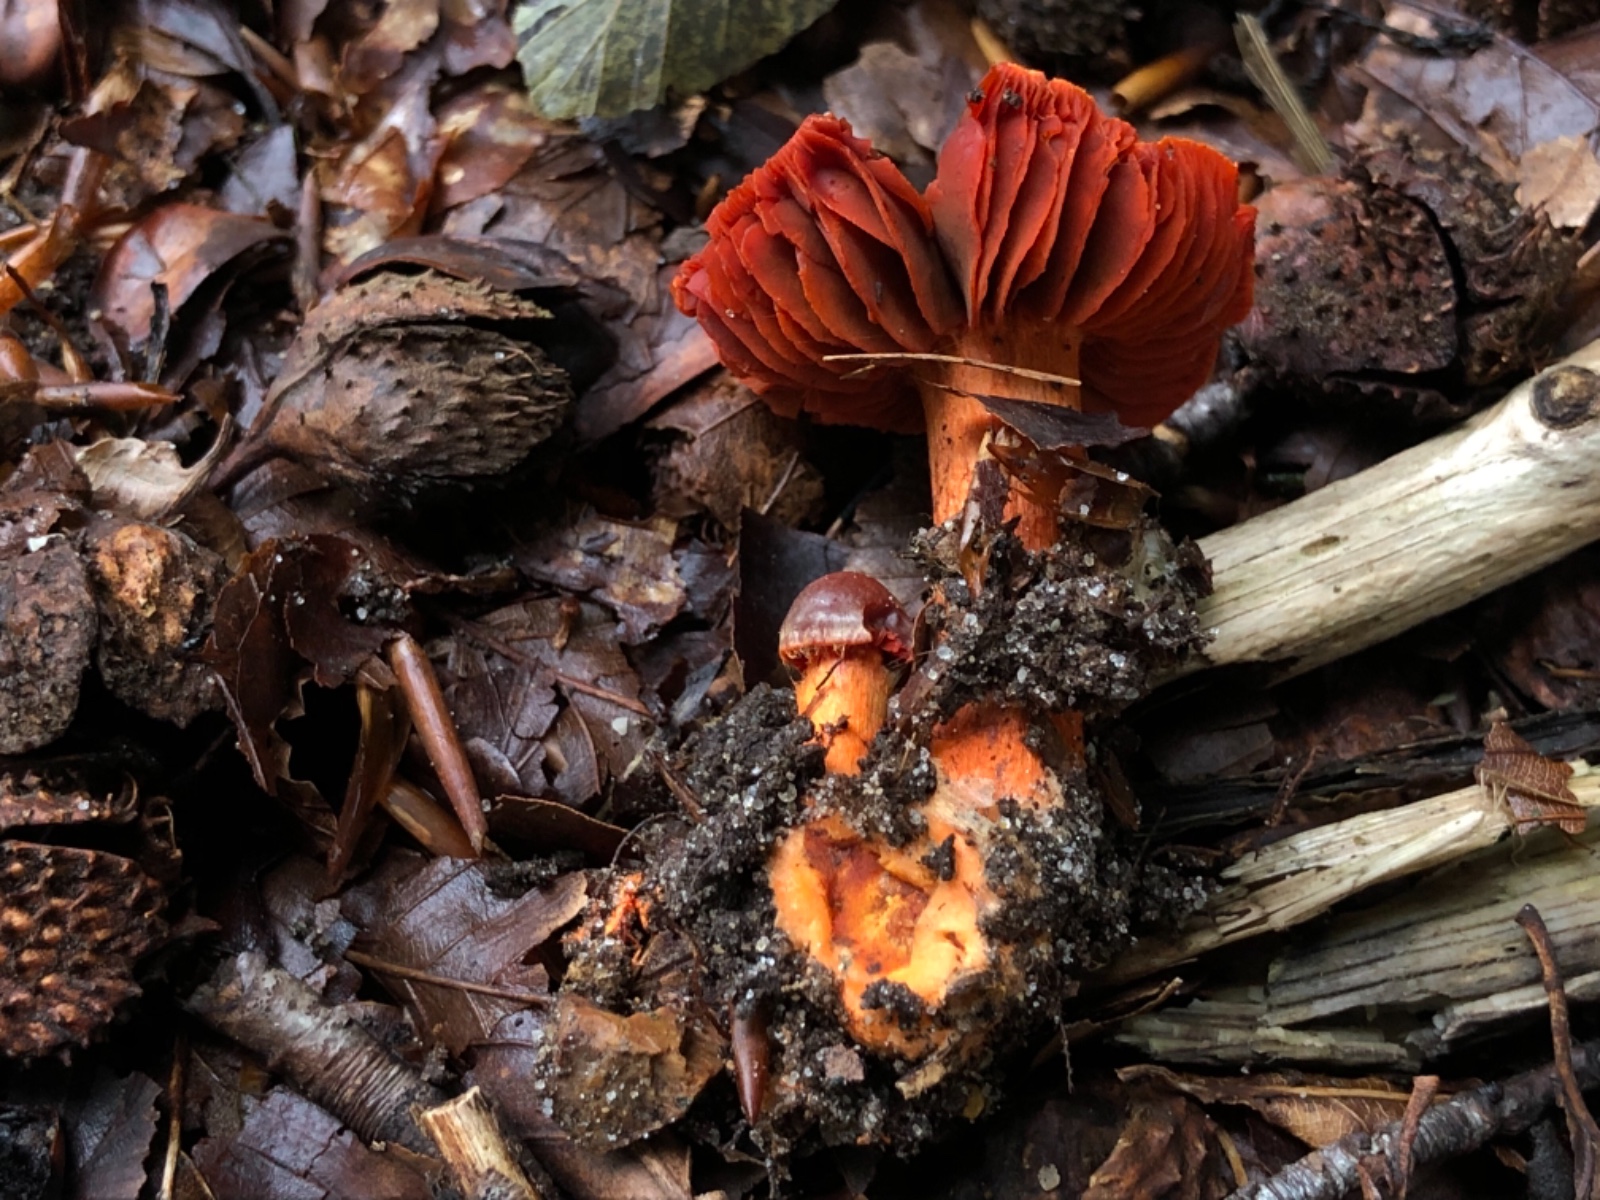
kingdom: Fungi
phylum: Basidiomycota
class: Agaricomycetes
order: Agaricales
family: Cortinariaceae
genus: Cortinarius
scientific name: Cortinarius cinnabarinus
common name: cinnober-slørhat
